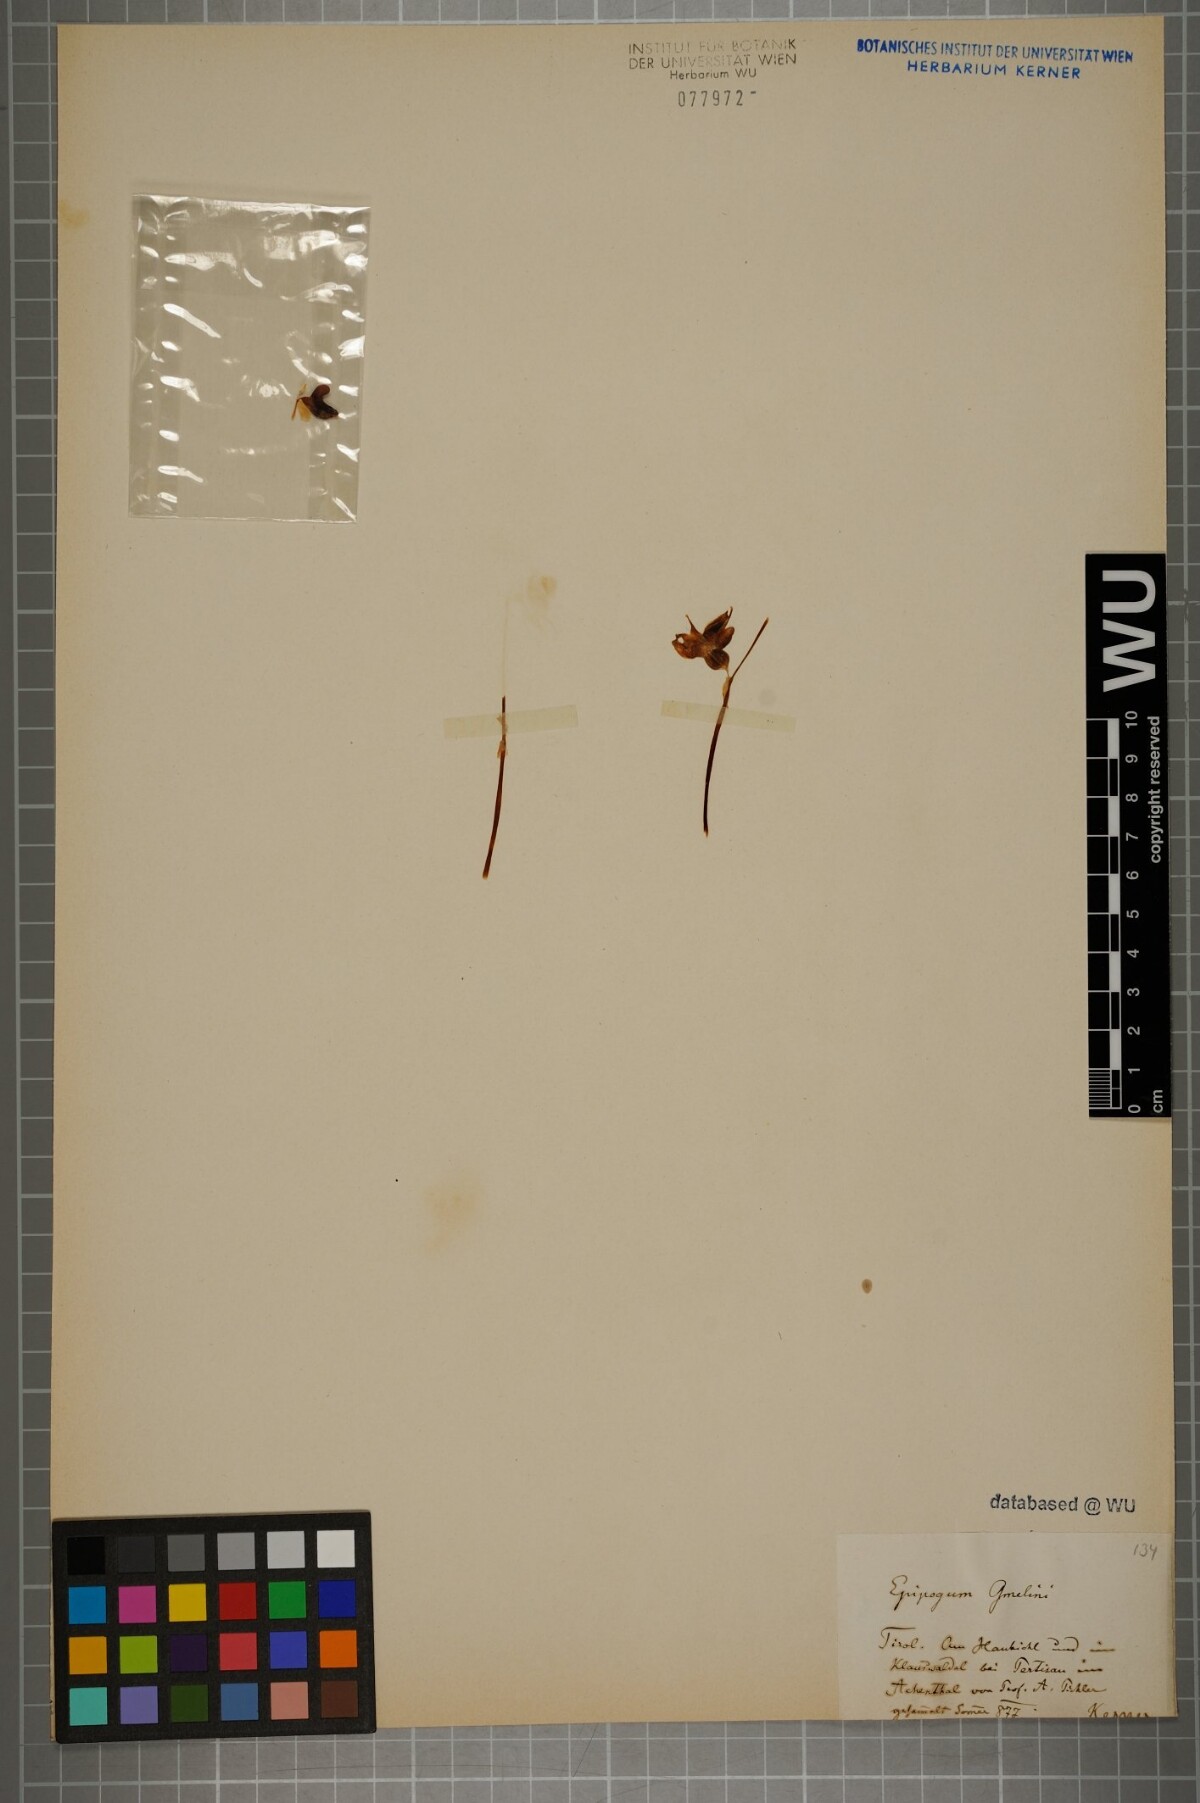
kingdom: Plantae
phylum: Tracheophyta
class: Liliopsida
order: Asparagales
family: Orchidaceae
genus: Epipogium
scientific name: Epipogium aphyllum
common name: Ghost orchid
